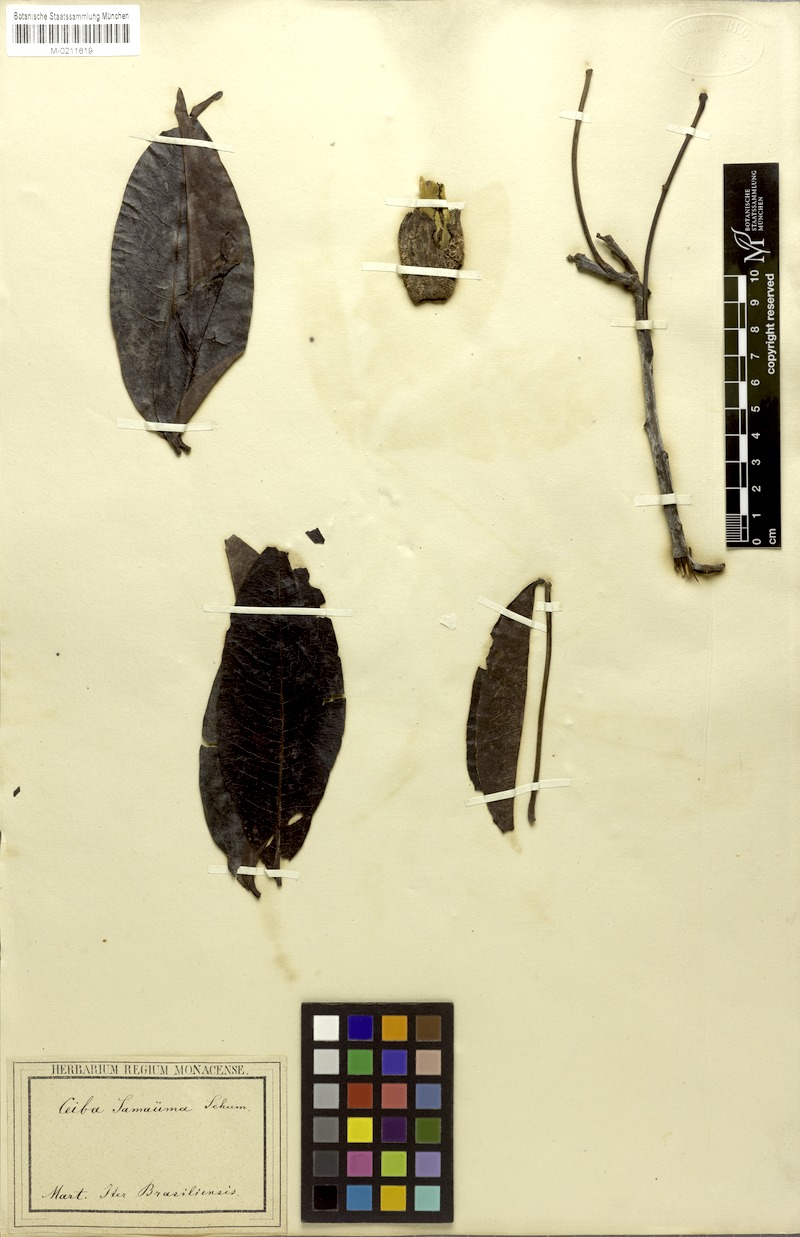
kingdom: Plantae
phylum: Tracheophyta
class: Magnoliopsida
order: Malvales
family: Malvaceae
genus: Ceiba
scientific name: Ceiba samauma
